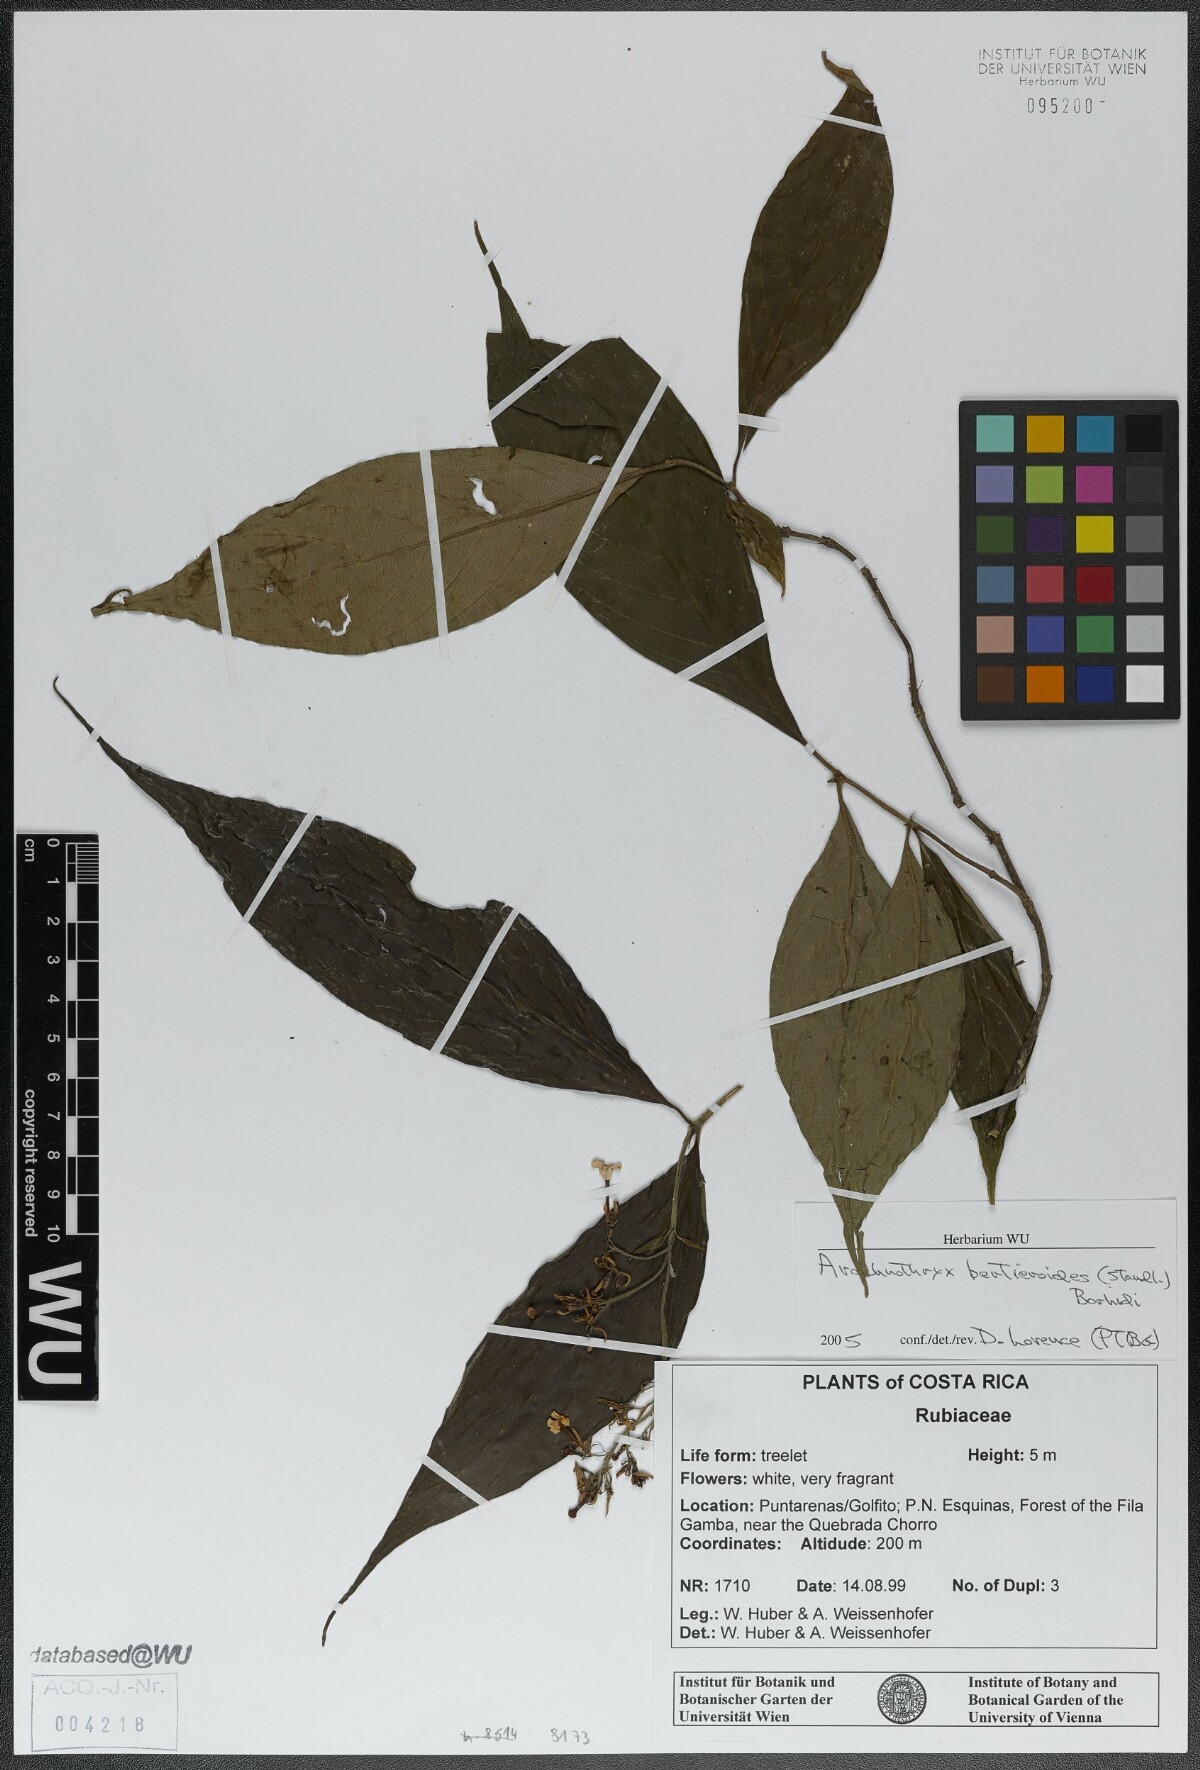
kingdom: Plantae
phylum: Tracheophyta
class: Magnoliopsida
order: Gentianales
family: Rubiaceae
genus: Arachnothryx
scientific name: Arachnothryx bertieroides
